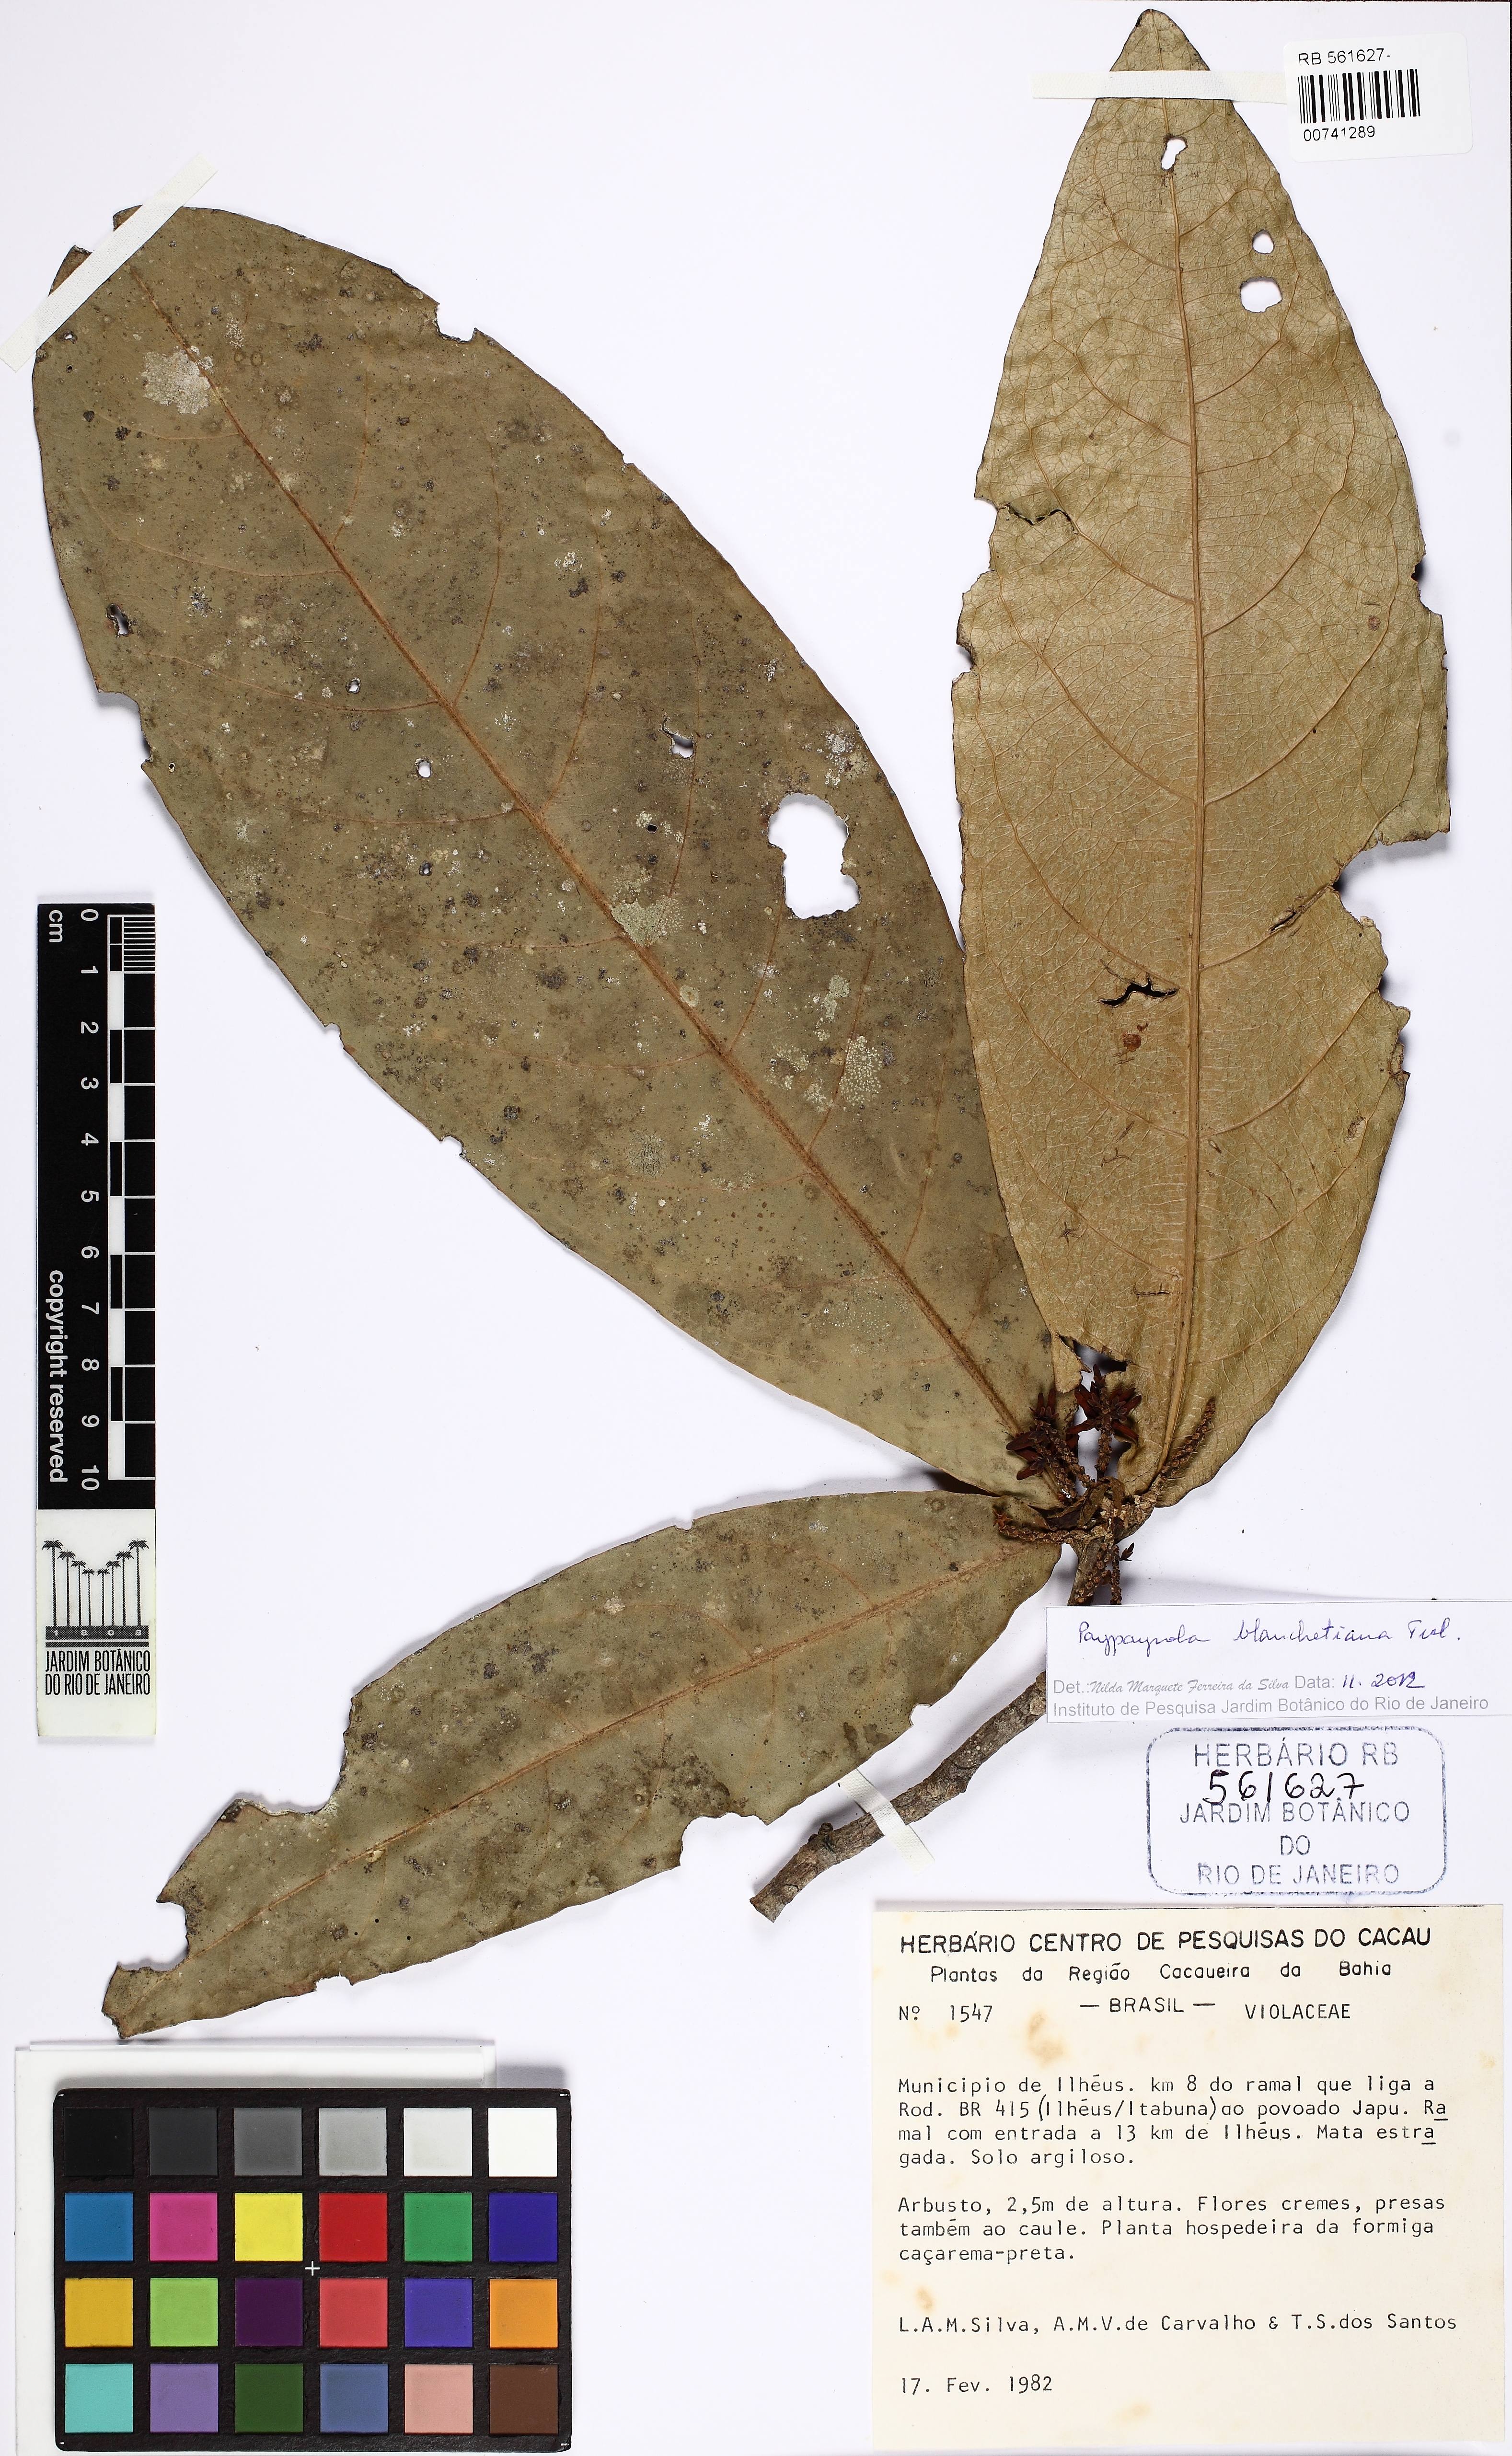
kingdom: Plantae
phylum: Tracheophyta
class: Magnoliopsida
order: Malpighiales
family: Violaceae
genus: Paypayrola
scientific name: Paypayrola blanchetiana
